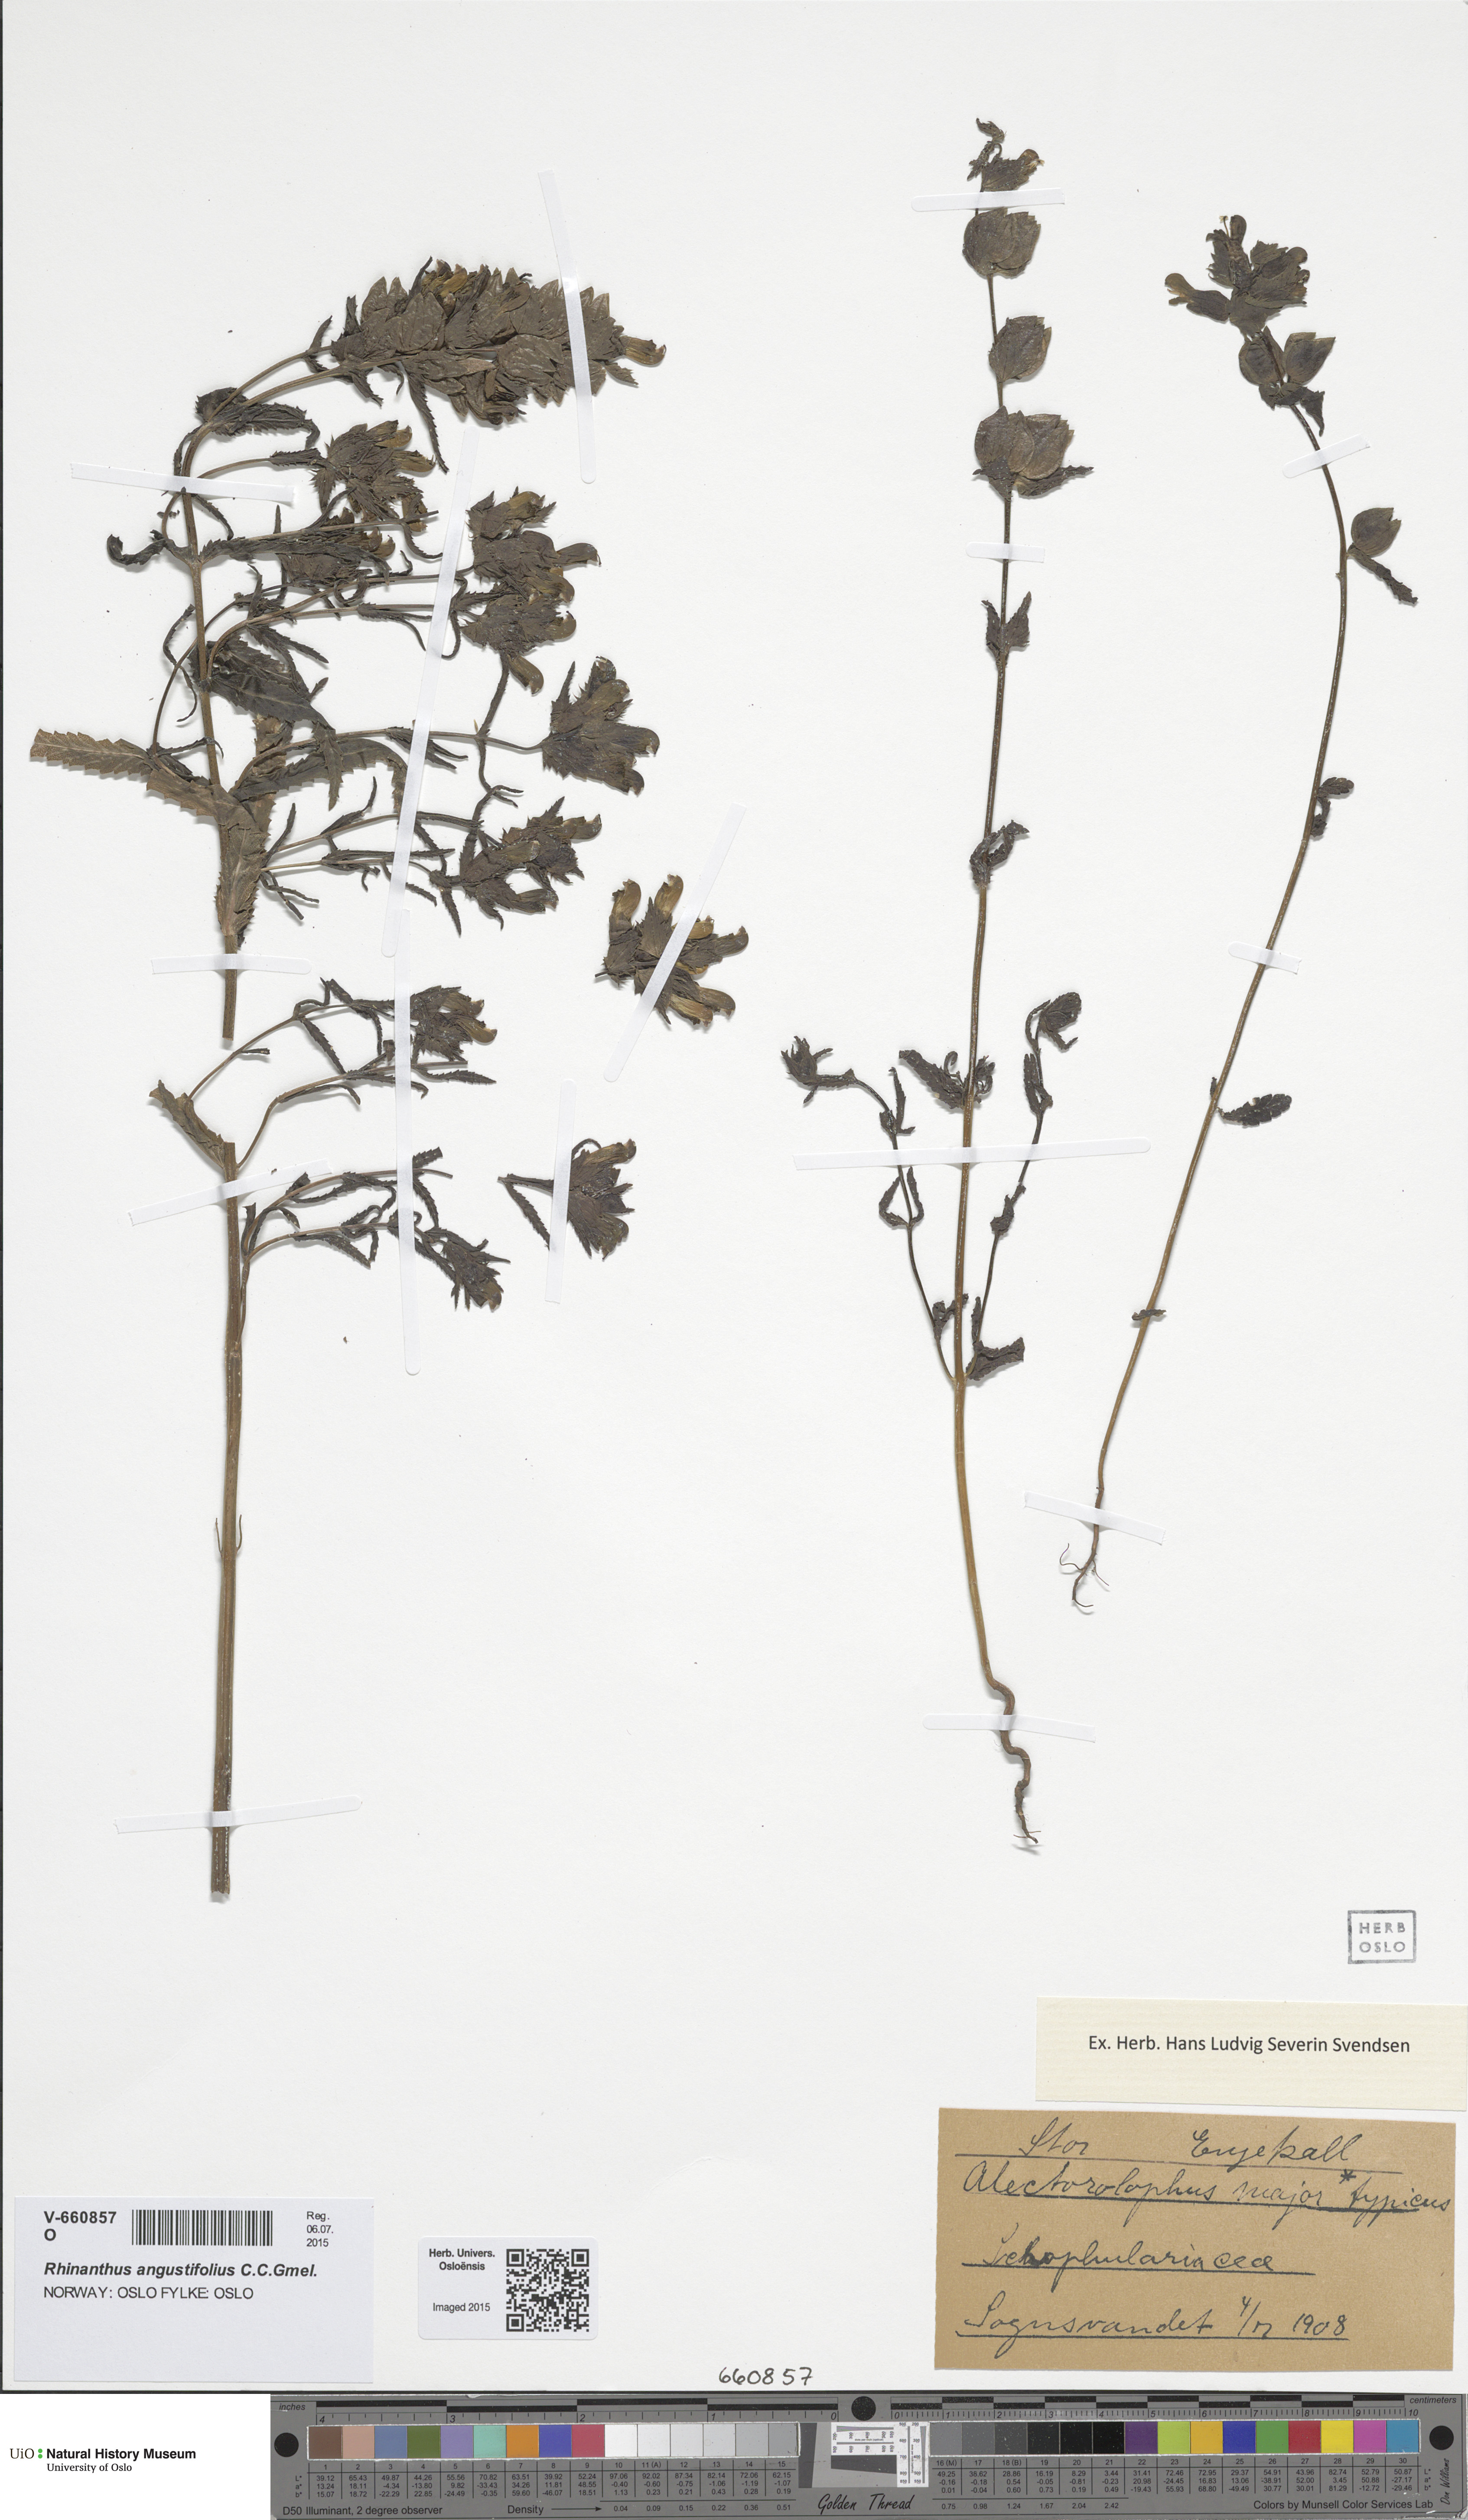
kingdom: Plantae
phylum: Tracheophyta
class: Magnoliopsida
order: Lamiales
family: Orobanchaceae
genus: Rhinanthus
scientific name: Rhinanthus serotinus
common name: Late-flowering yellow rattle
